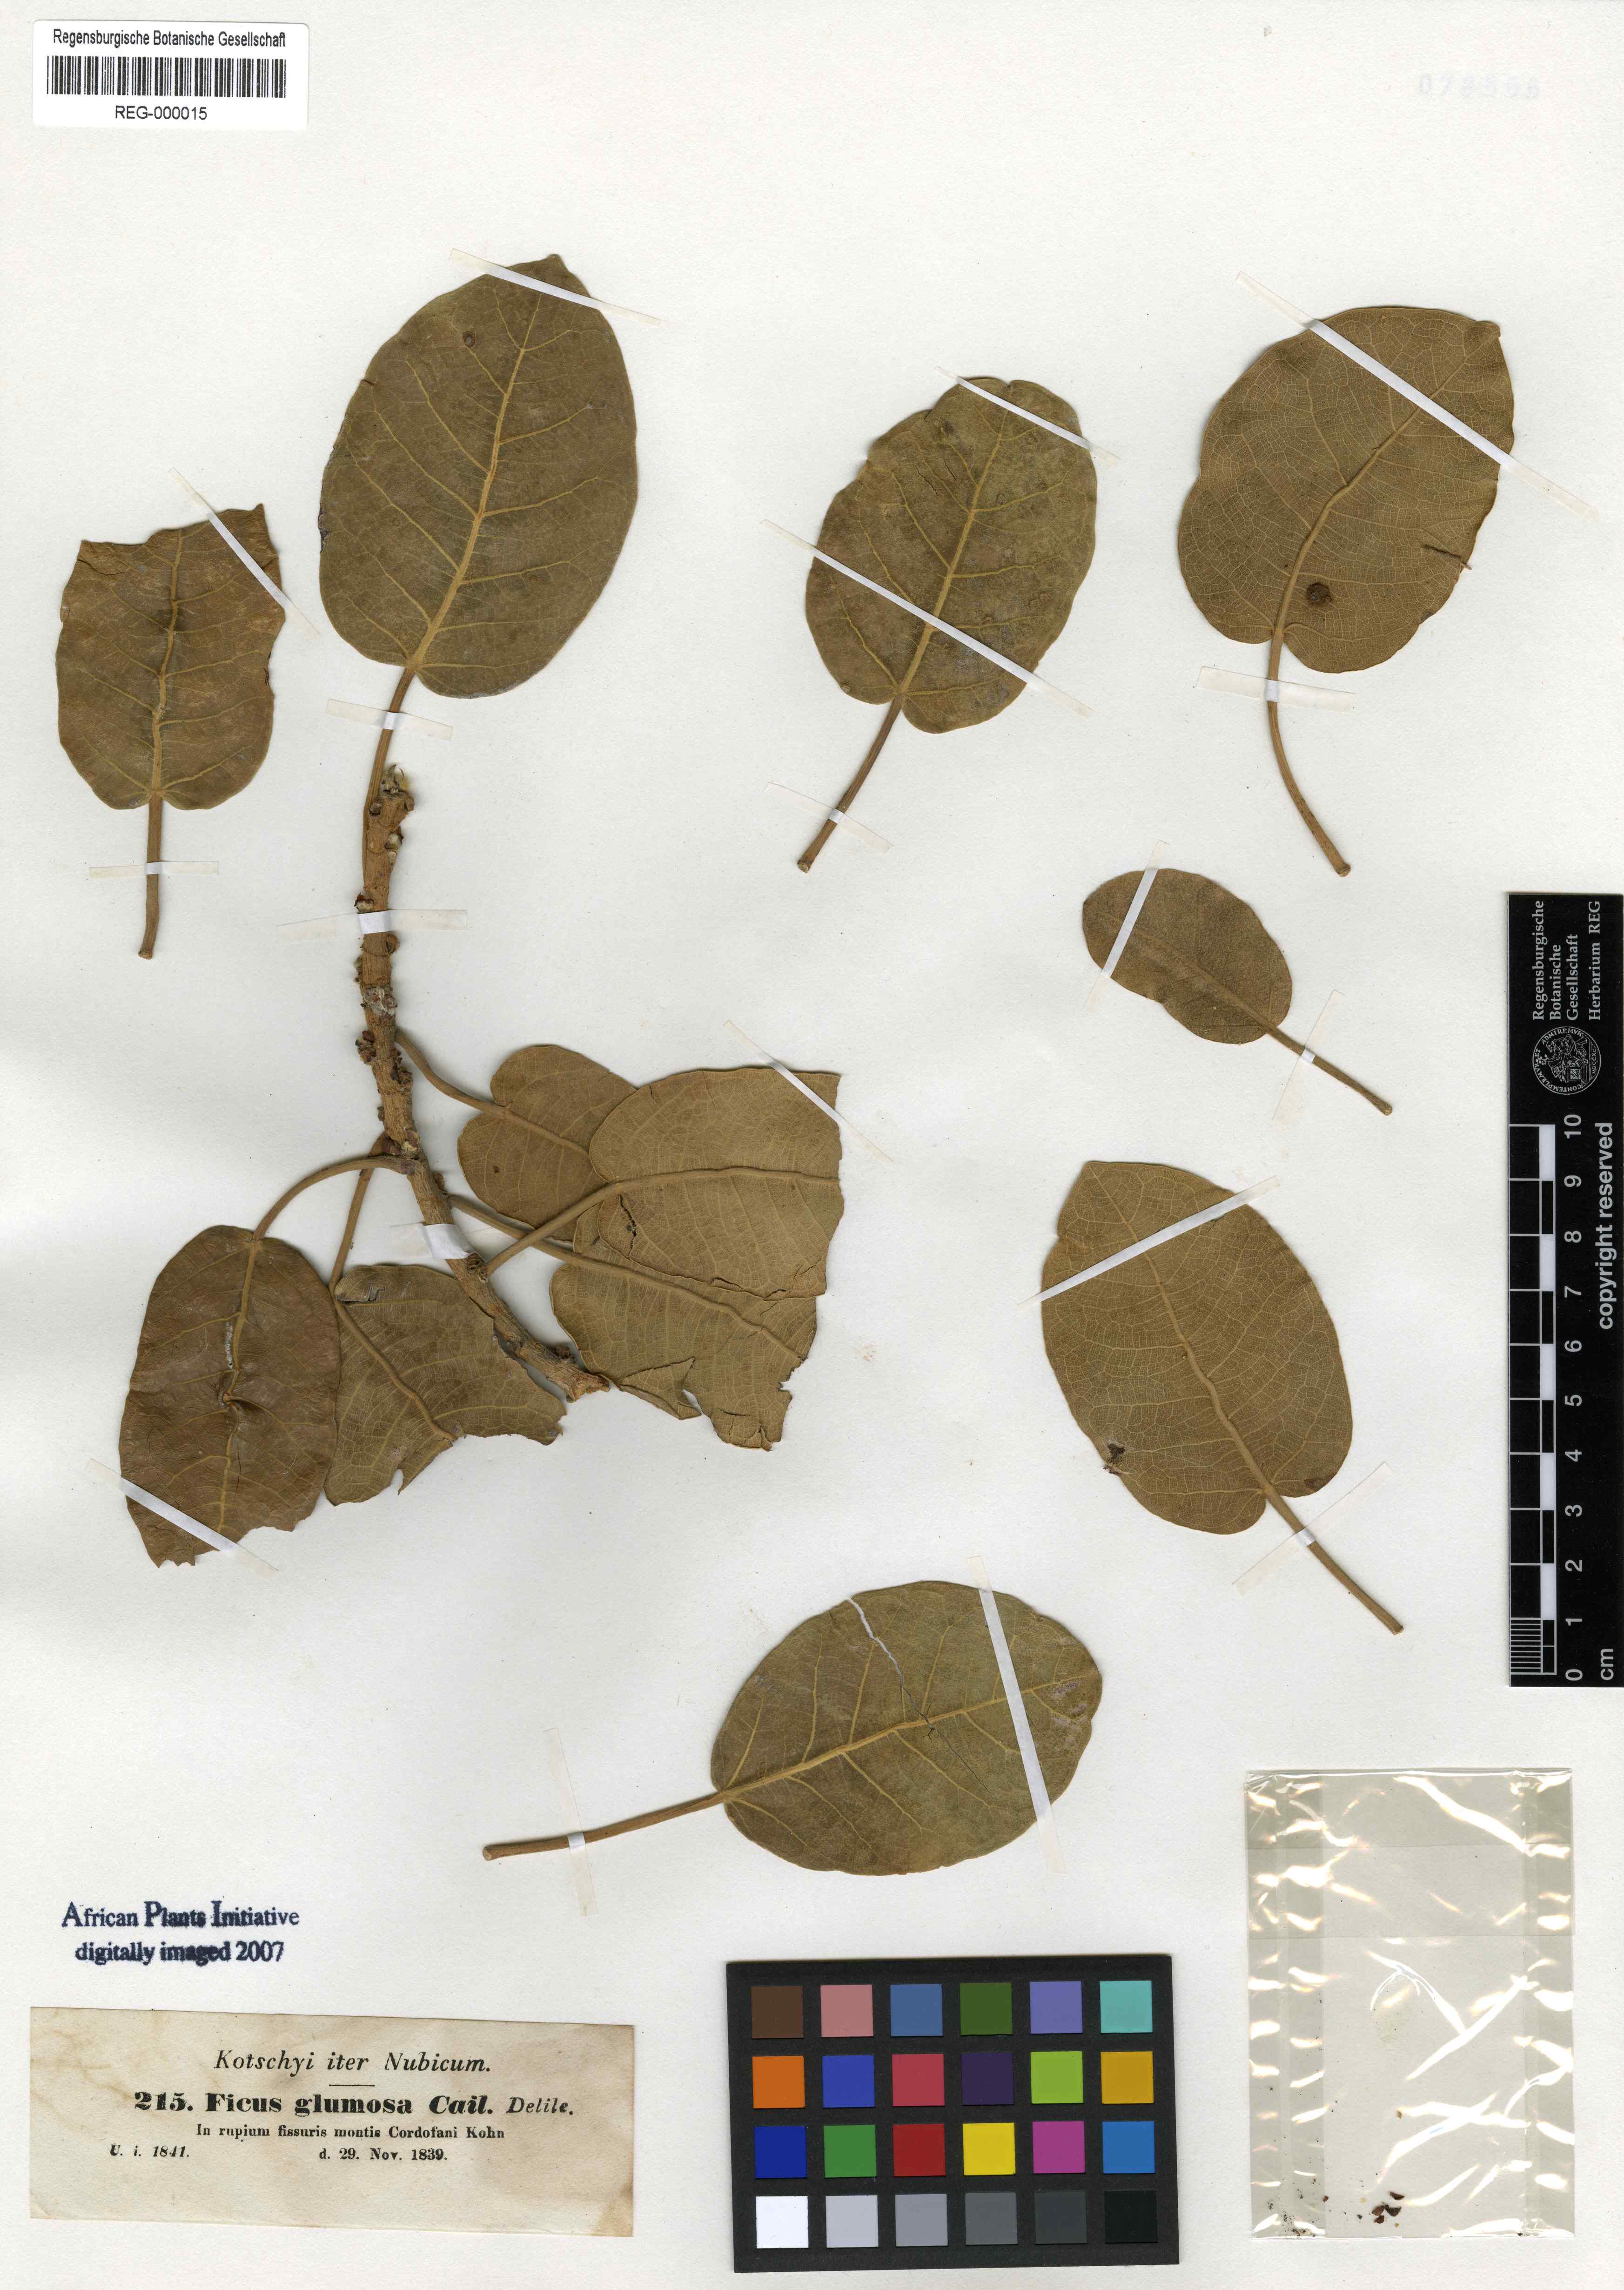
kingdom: Plantae
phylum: Tracheophyta
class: Magnoliopsida
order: Rosales
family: Moraceae
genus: Ficus
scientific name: Ficus glumosa
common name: Hairy rock fig
